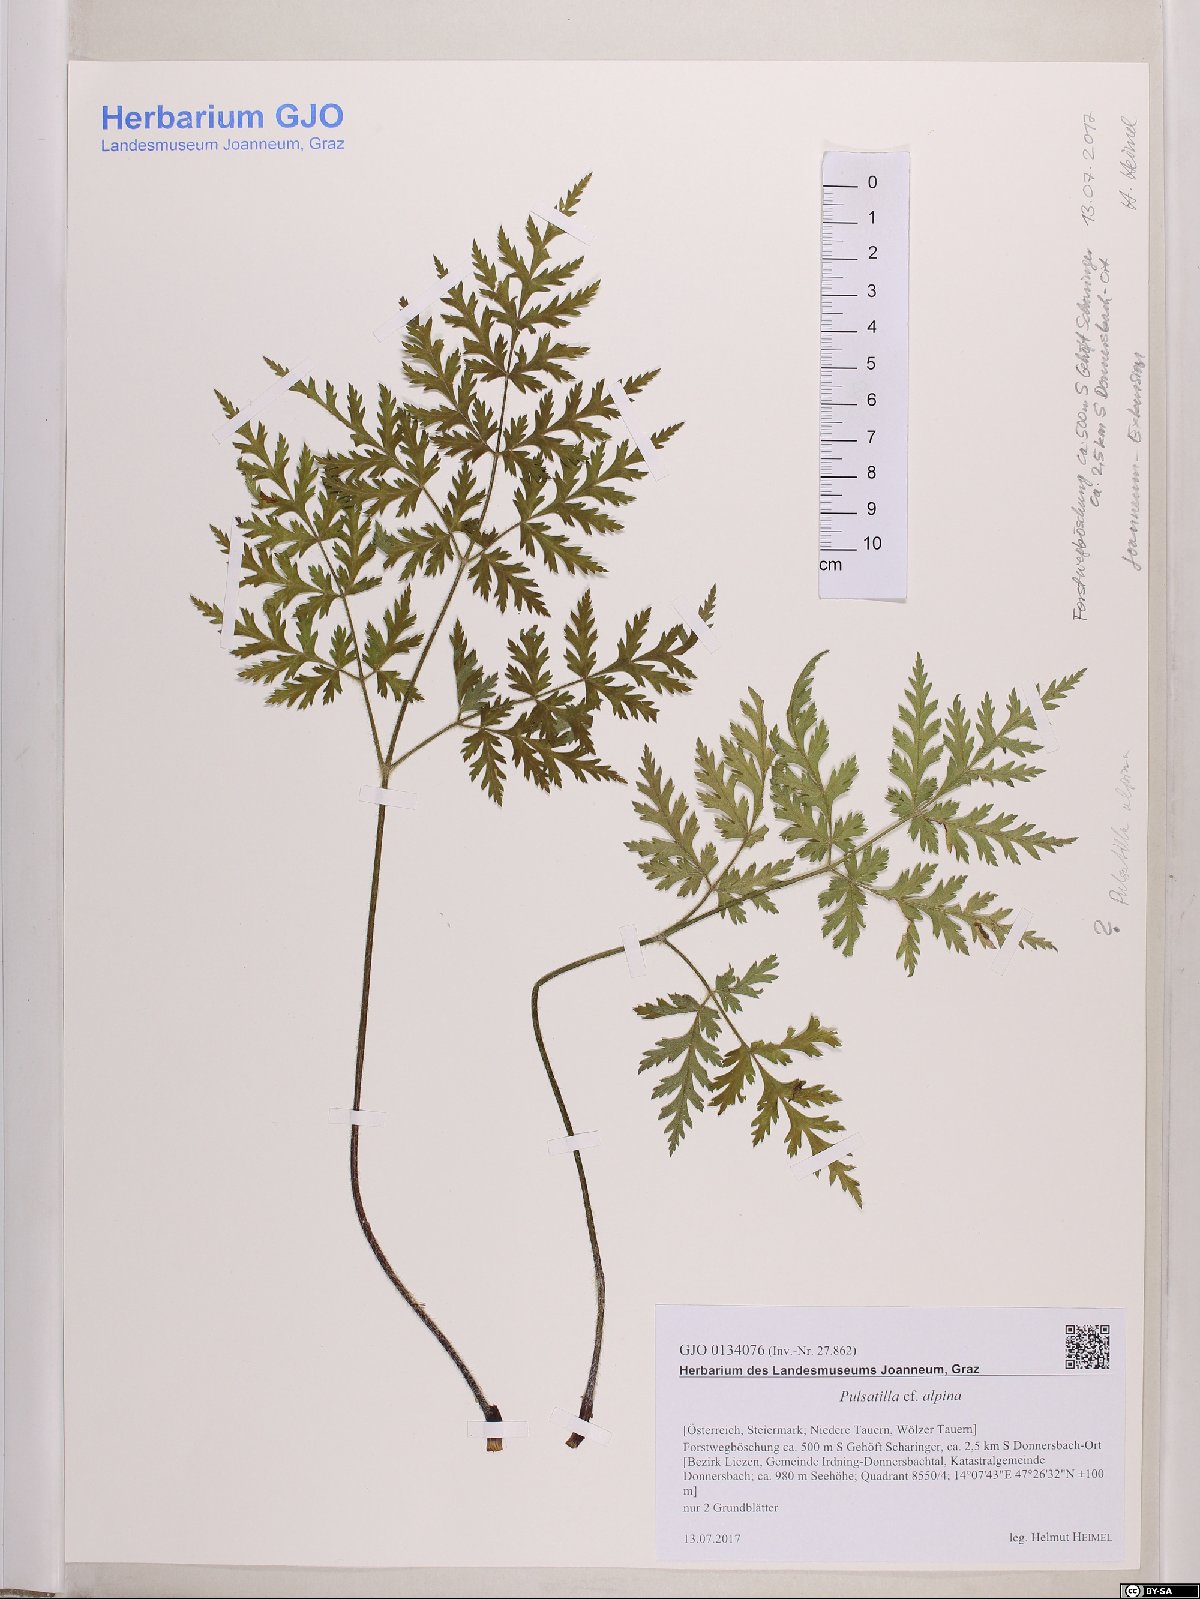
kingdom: Plantae
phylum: Tracheophyta
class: Magnoliopsida
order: Ranunculales
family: Ranunculaceae
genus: Pulsatilla
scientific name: Pulsatilla alpina
